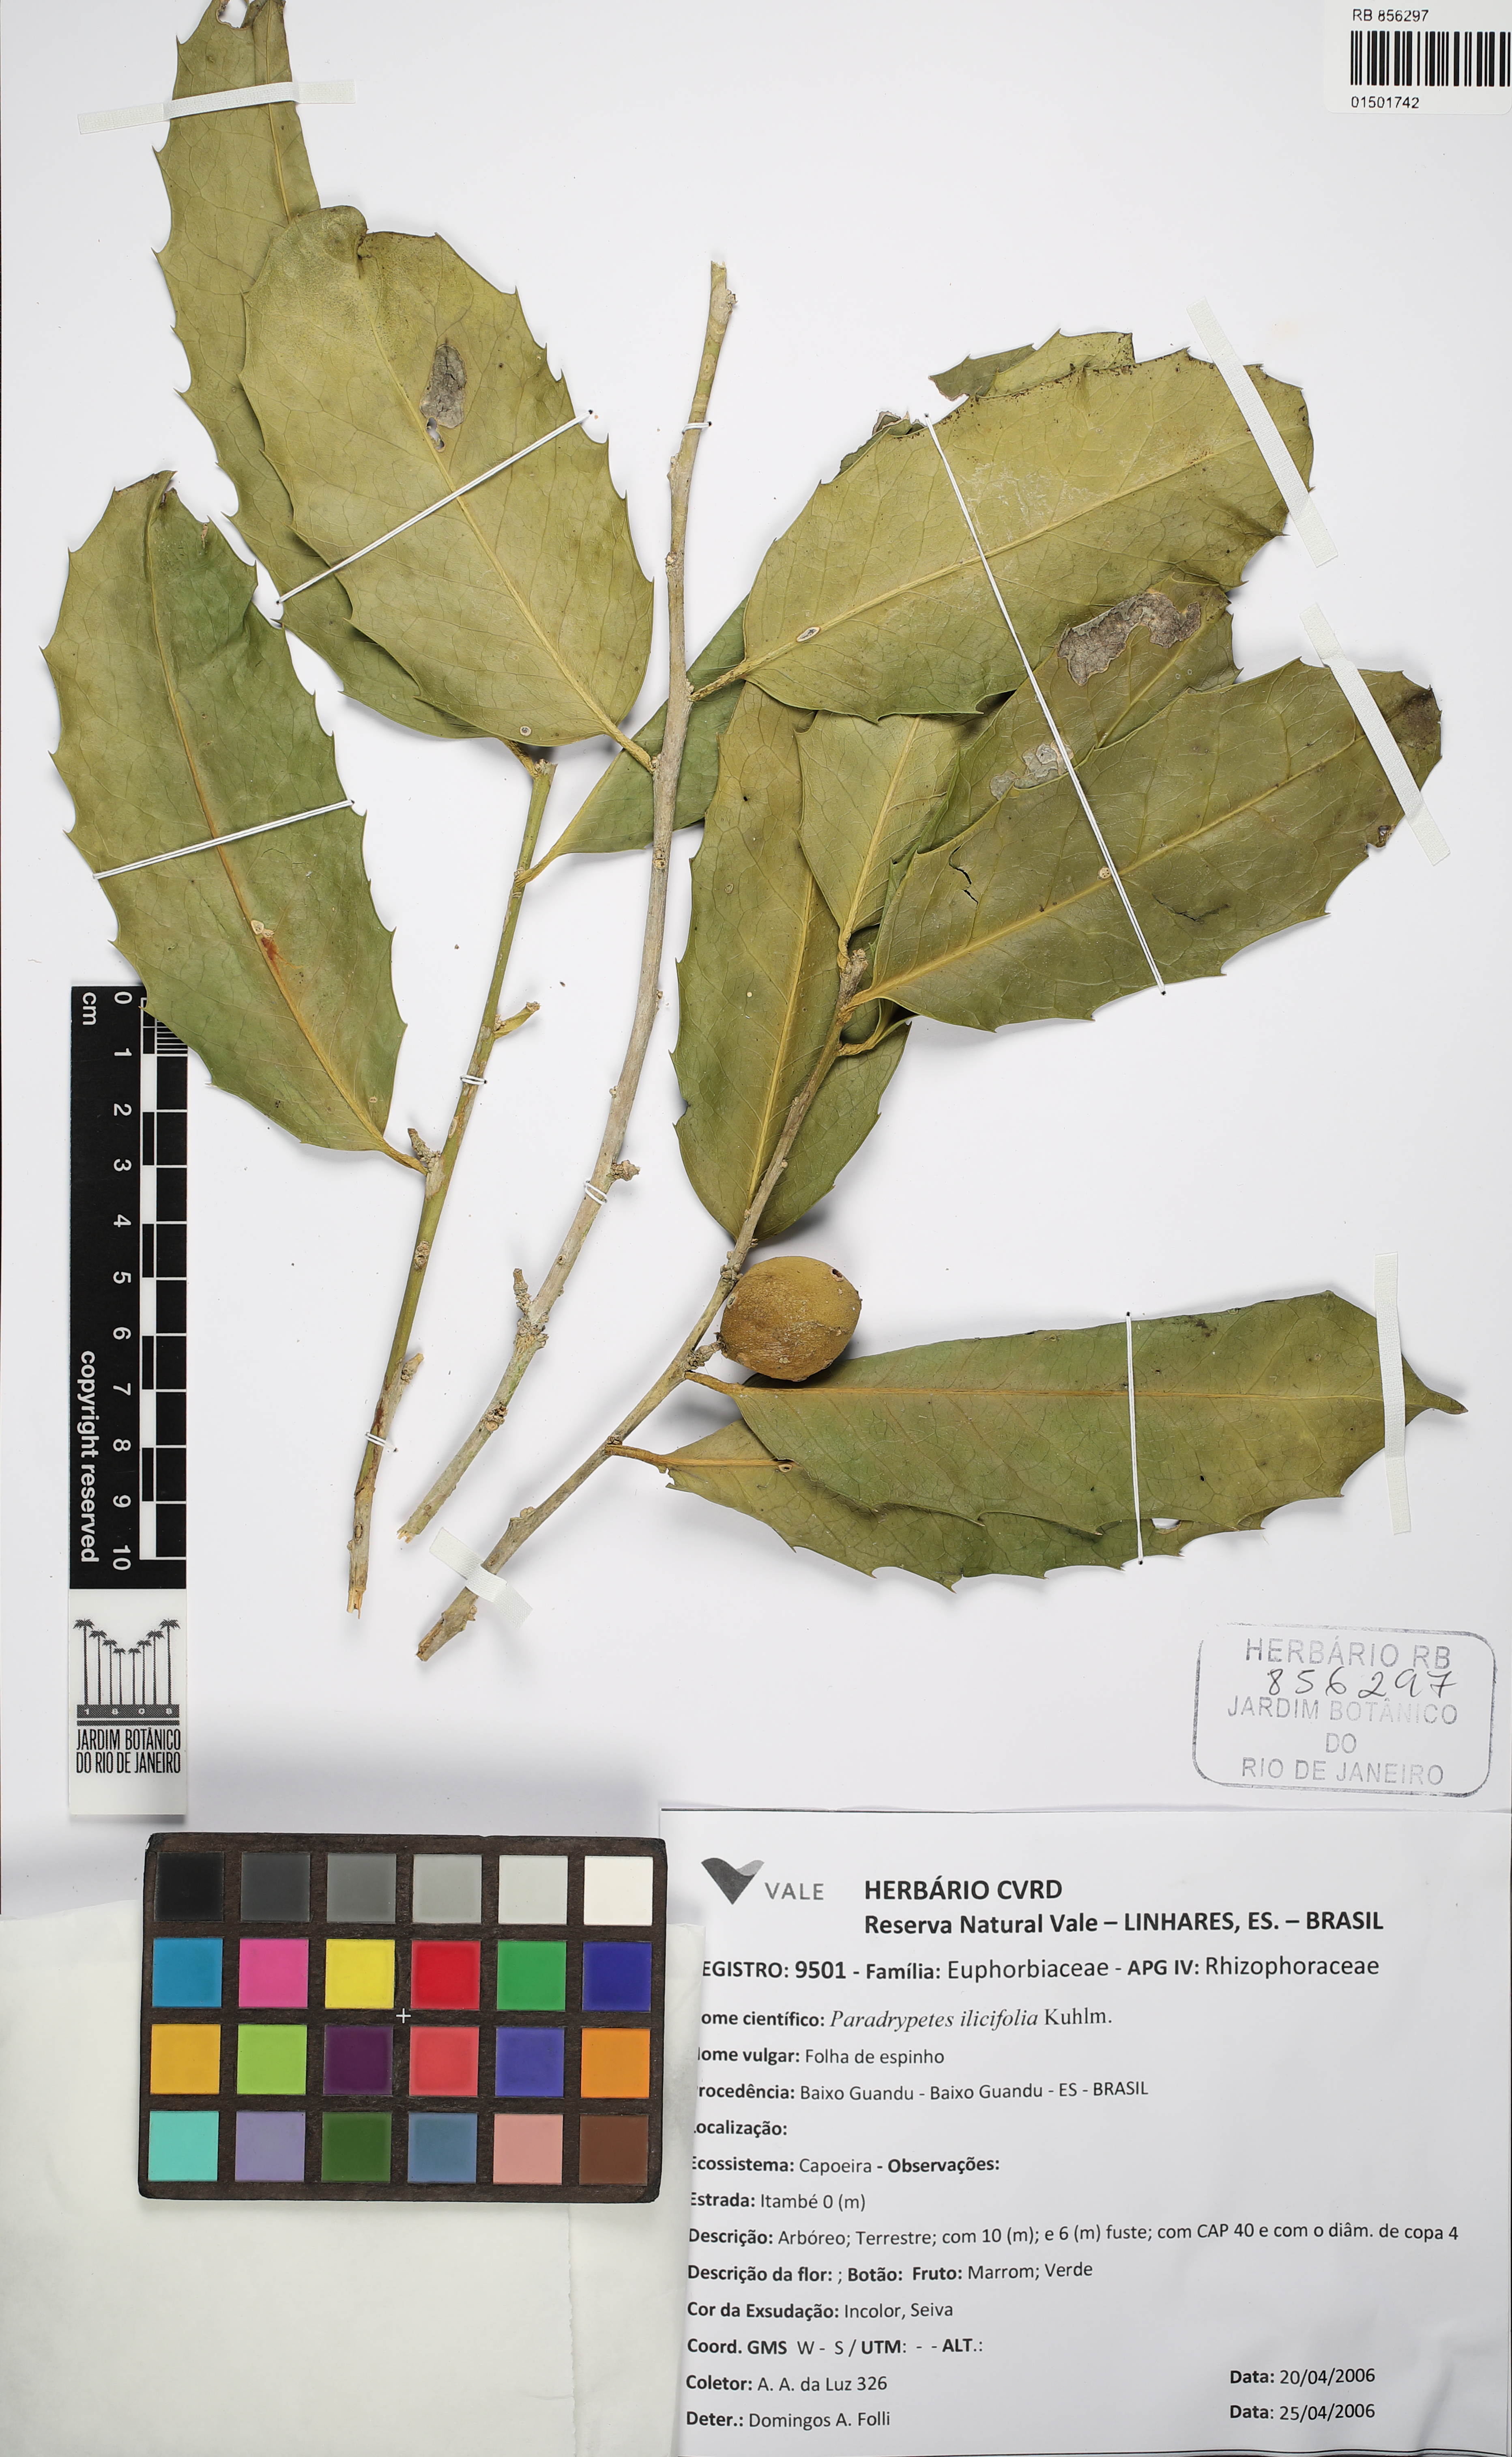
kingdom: Plantae
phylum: Tracheophyta
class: Magnoliopsida
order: Malpighiales
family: Rhizophoraceae
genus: Paradrypetes
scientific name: Paradrypetes ilicifolia
